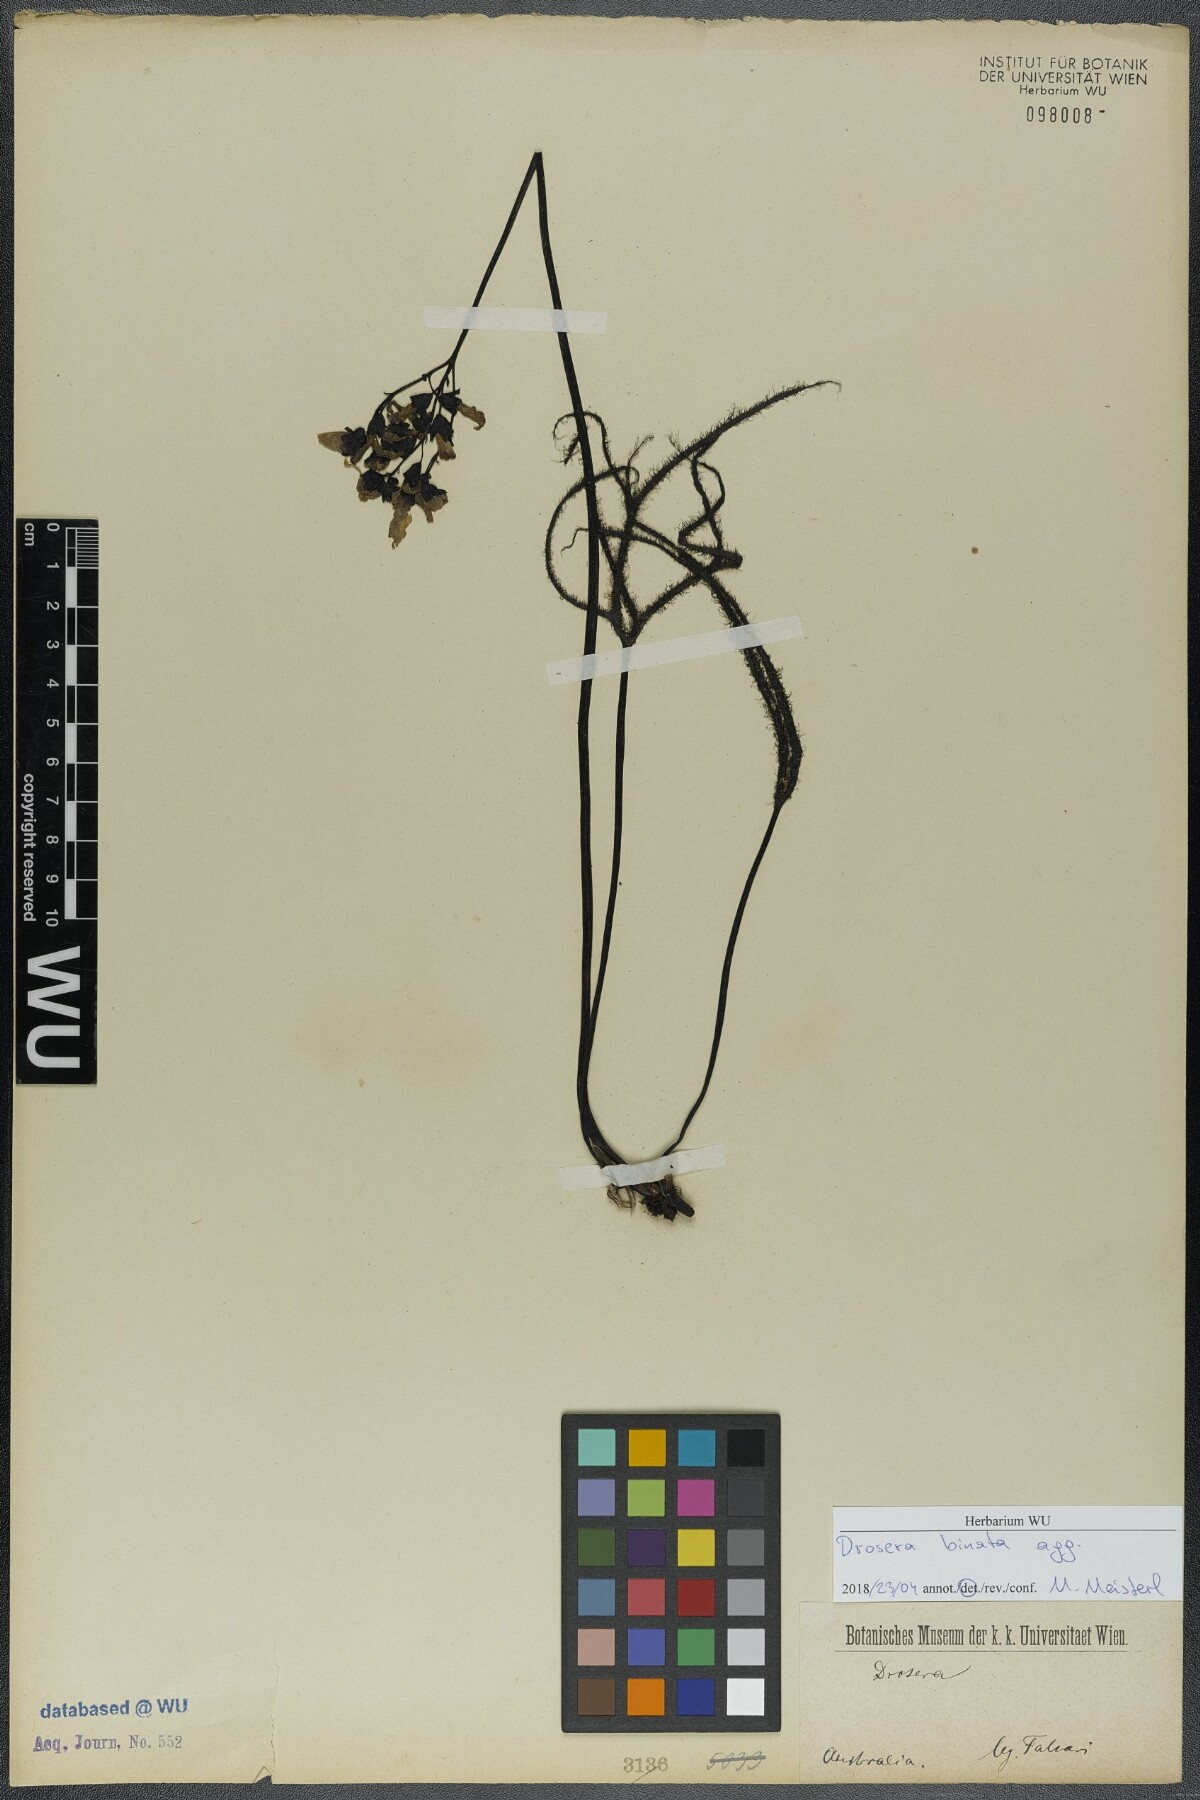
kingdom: Plantae
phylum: Tracheophyta
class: Magnoliopsida
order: Caryophyllales
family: Droseraceae
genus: Drosera
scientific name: Drosera binata
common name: Forked sundew
